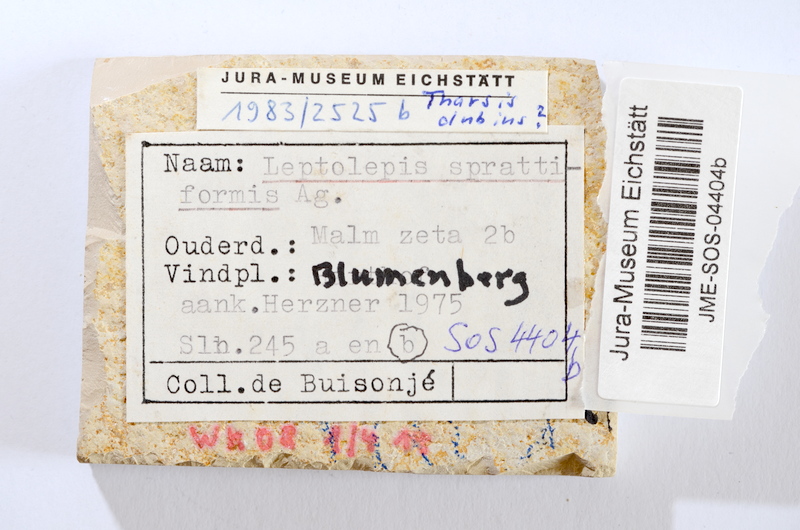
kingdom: Animalia
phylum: Chordata
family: Ascalaboidae
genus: Tharsis
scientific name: Tharsis dubius
